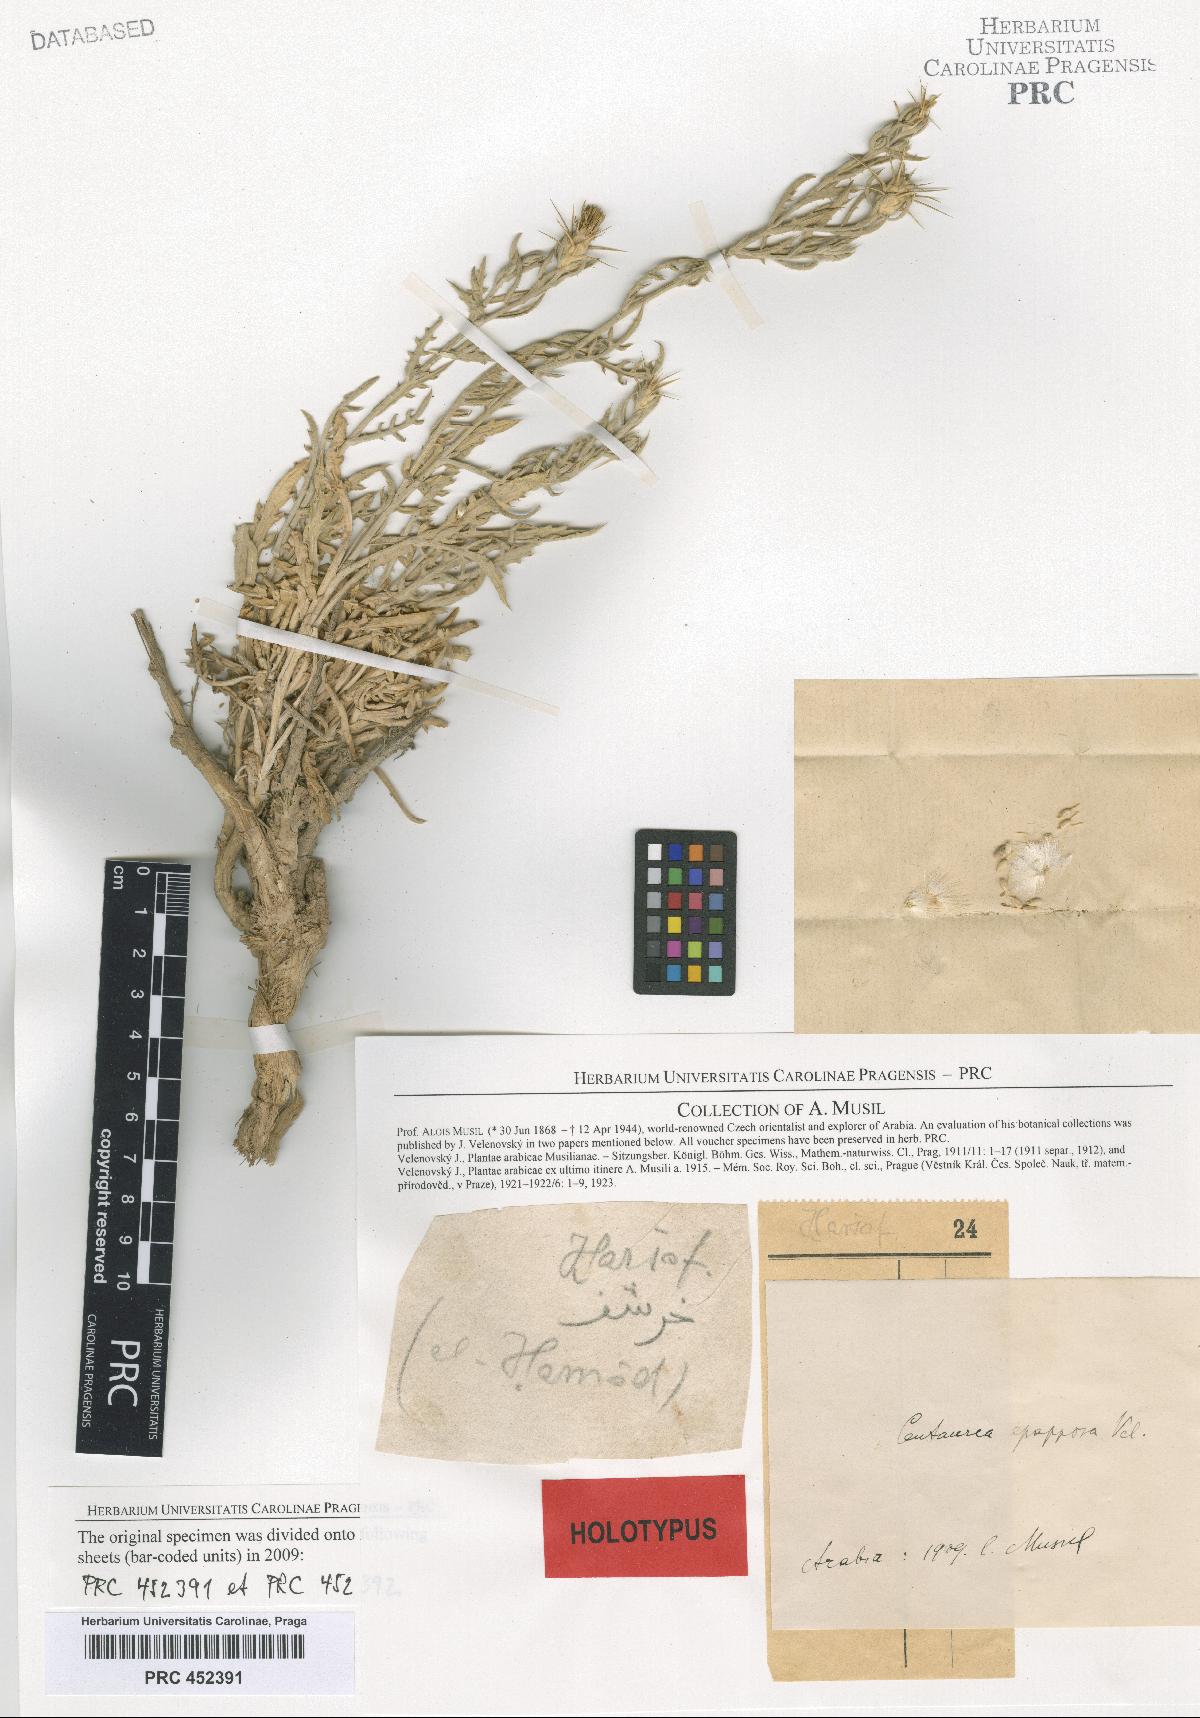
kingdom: Plantae
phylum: Tracheophyta
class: Magnoliopsida
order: Asterales
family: Asteraceae
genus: Centaurea
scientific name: Centaurea epapposa
